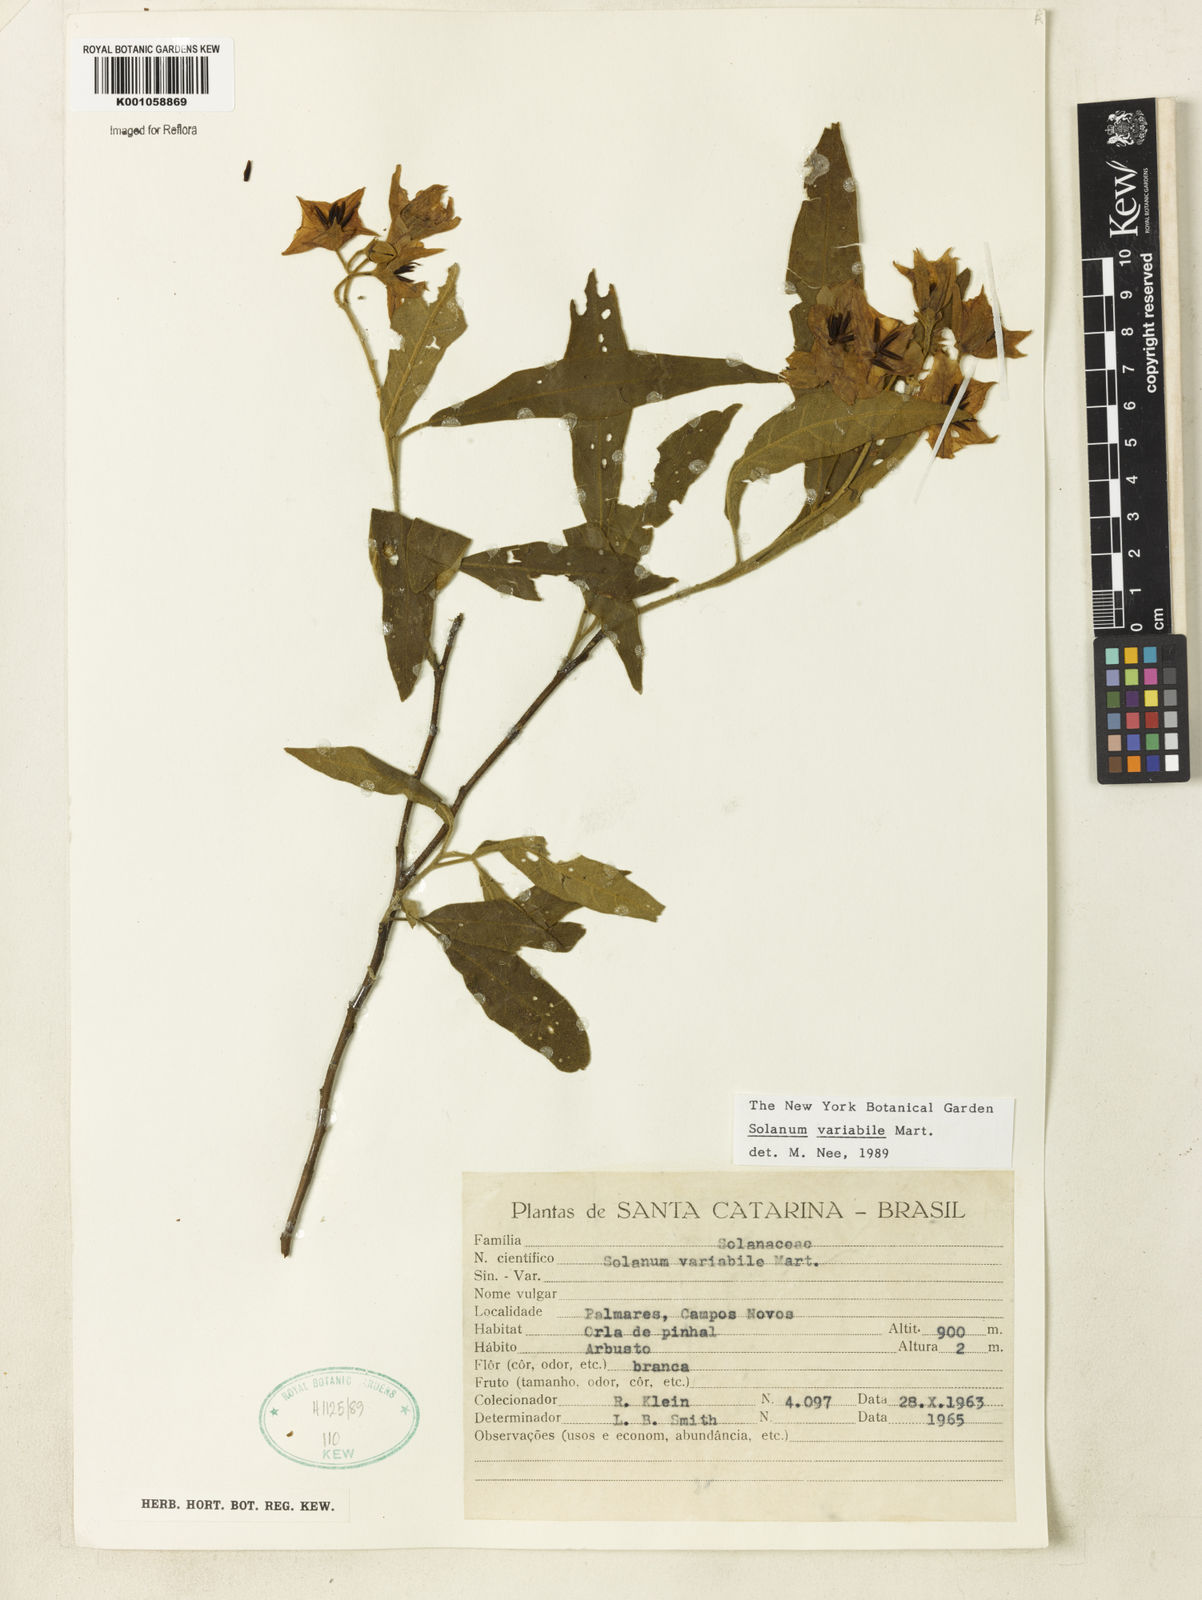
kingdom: Plantae
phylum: Tracheophyta
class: Magnoliopsida
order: Solanales
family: Solanaceae
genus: Solanum
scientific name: Solanum variabile
